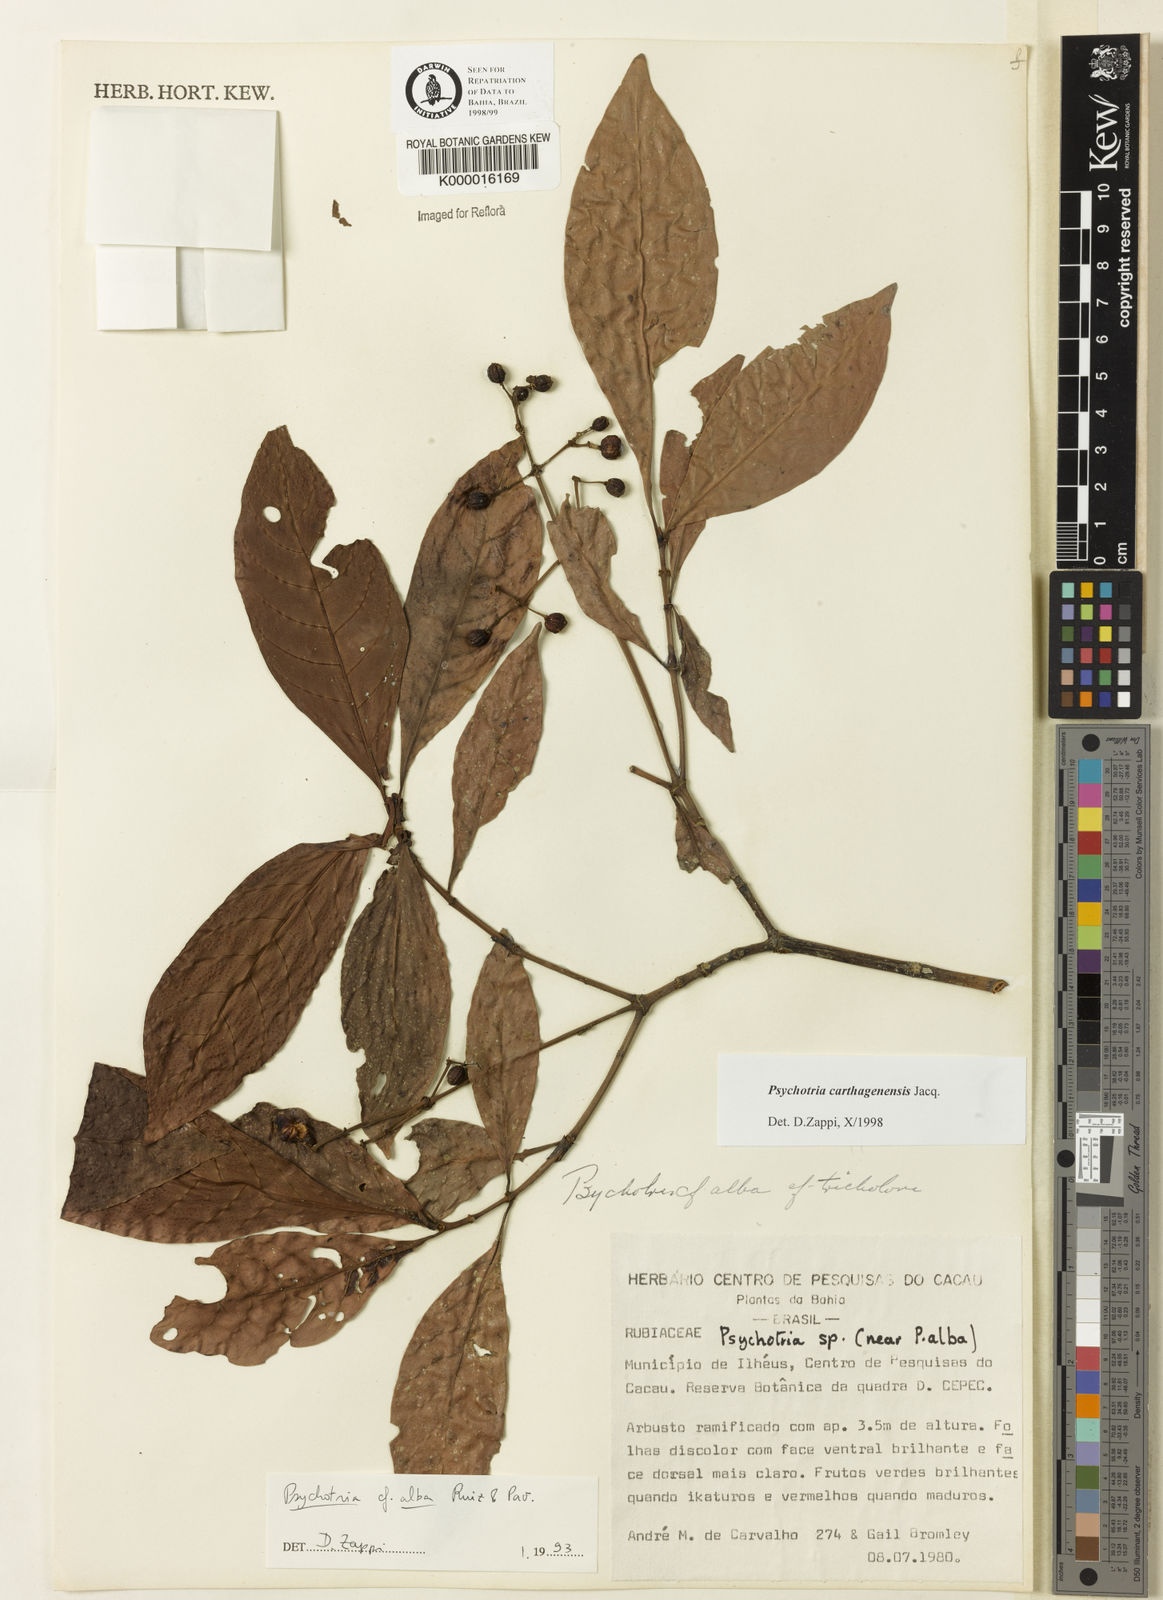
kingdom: Plantae
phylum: Tracheophyta
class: Magnoliopsida
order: Gentianales
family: Rubiaceae
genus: Psychotria
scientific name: Psychotria carthagenensis
